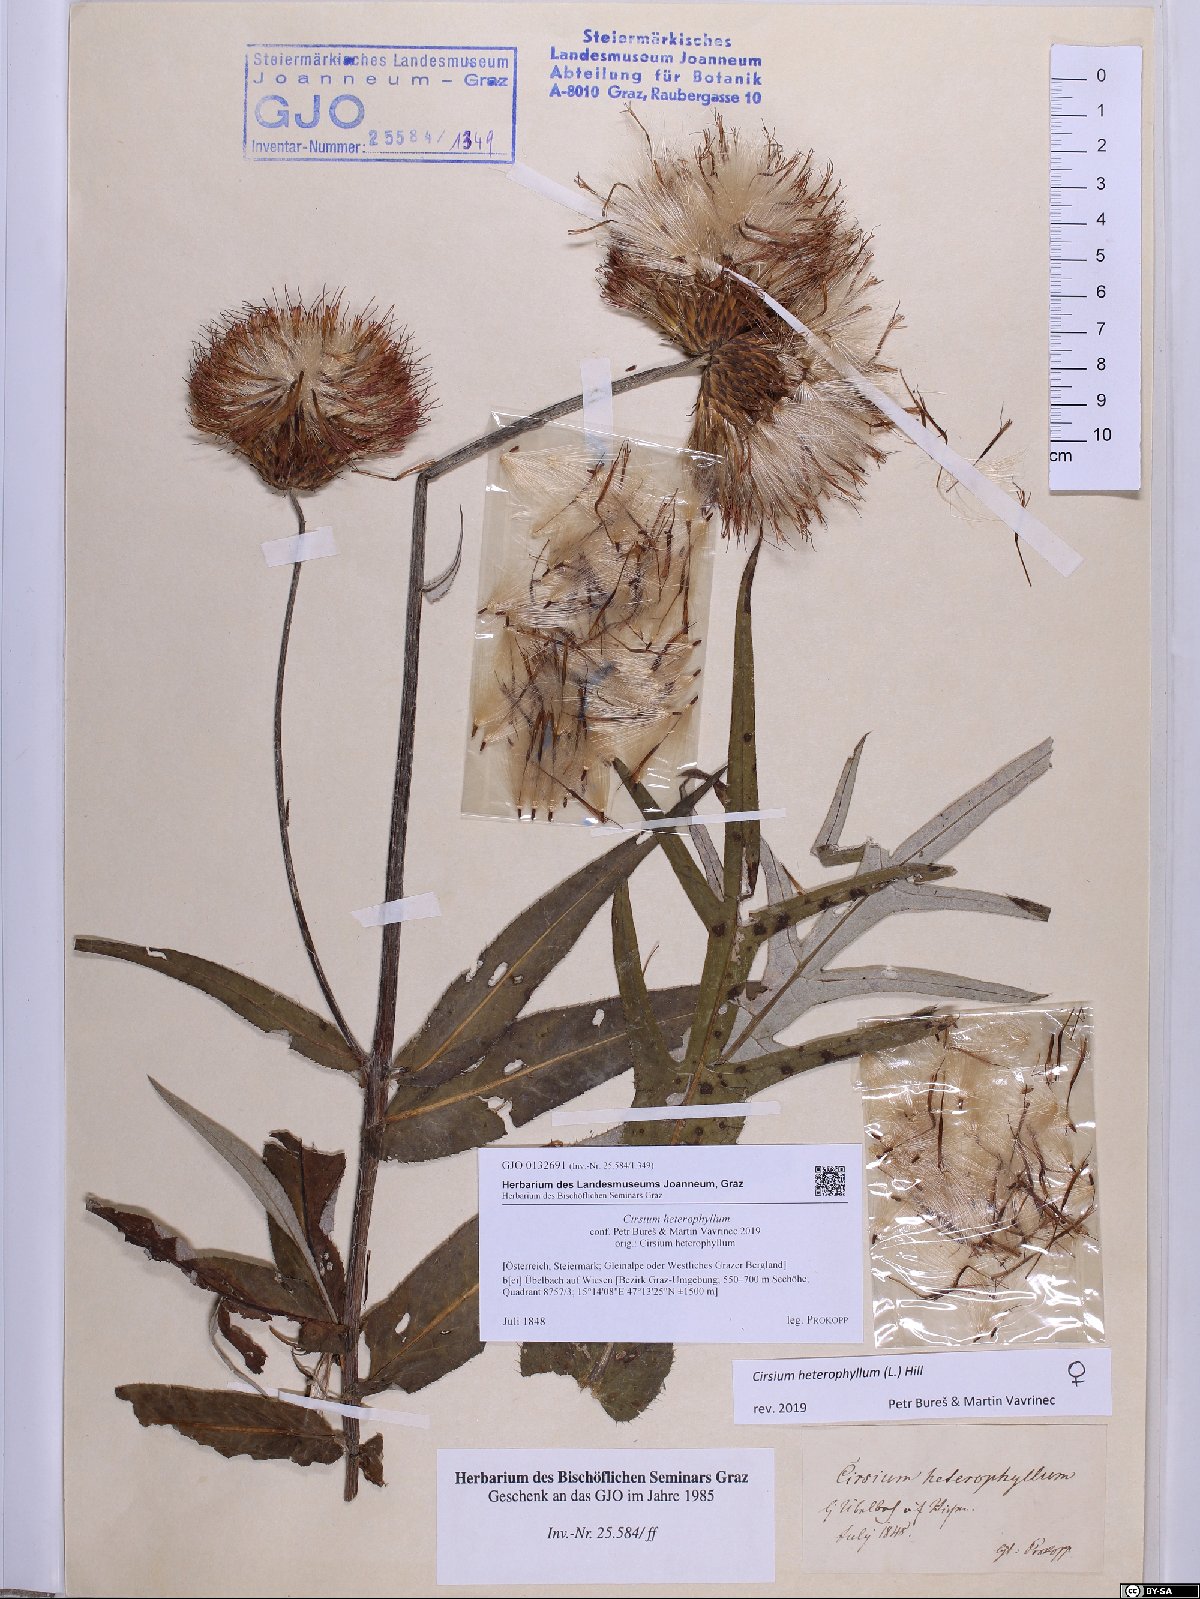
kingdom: Plantae
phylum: Tracheophyta
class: Magnoliopsida
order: Asterales
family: Asteraceae
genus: Cirsium
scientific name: Cirsium heterophyllum
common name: Melancholy thistle
